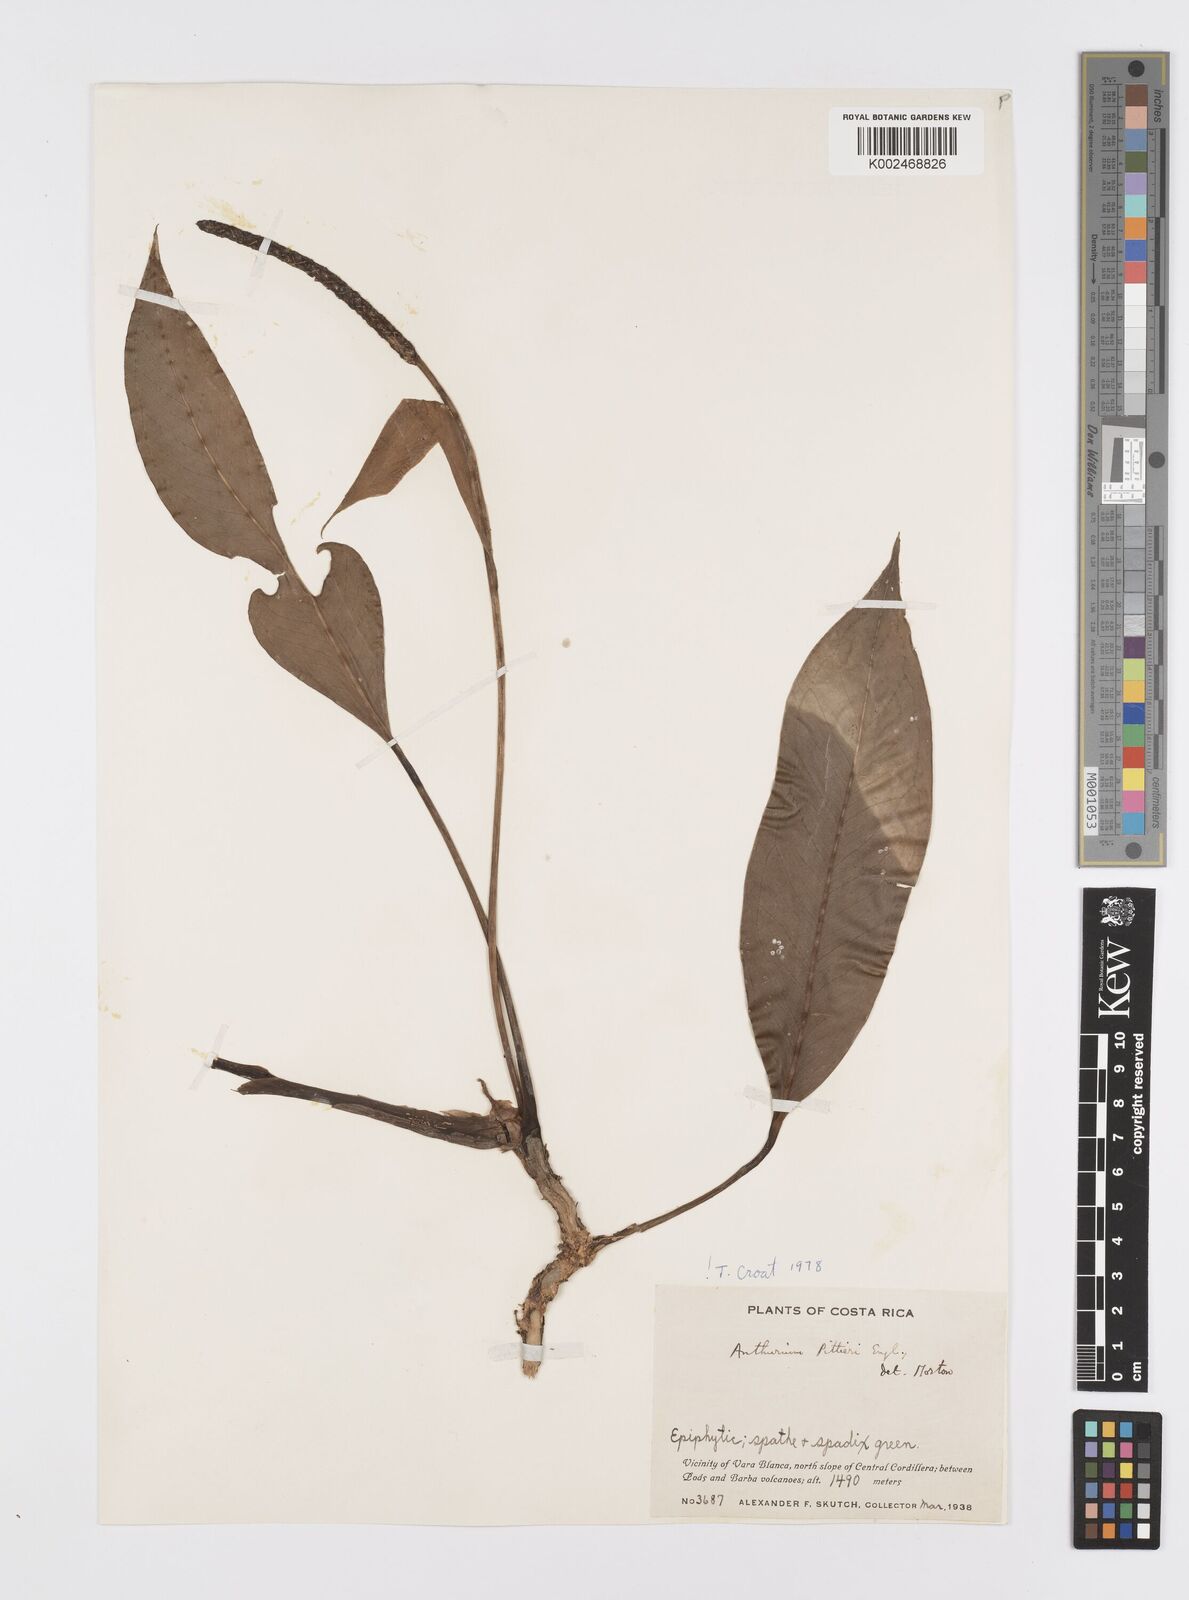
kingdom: Plantae
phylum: Tracheophyta
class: Liliopsida
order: Alismatales
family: Araceae
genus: Anthurium
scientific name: Anthurium pittieri
